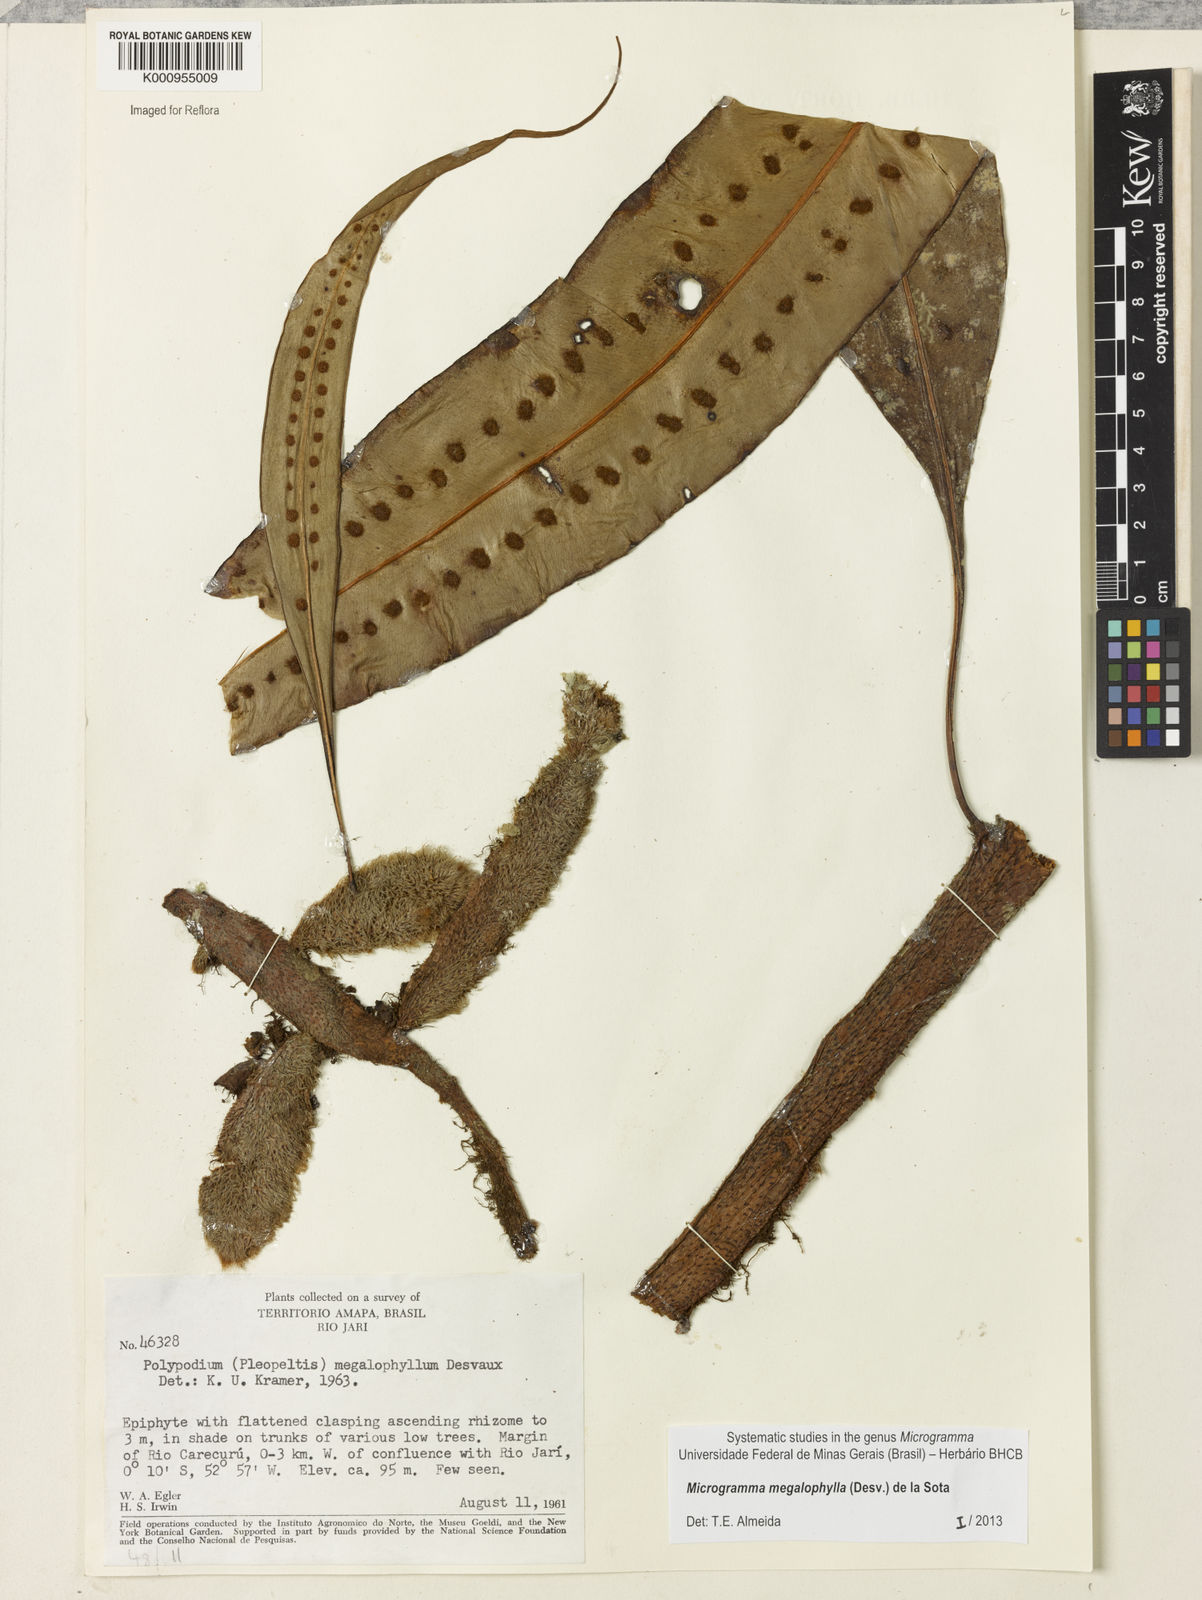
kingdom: Plantae
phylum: Tracheophyta
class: Polypodiopsida
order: Polypodiales
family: Polypodiaceae
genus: Microgramma
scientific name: Microgramma megalophylla
